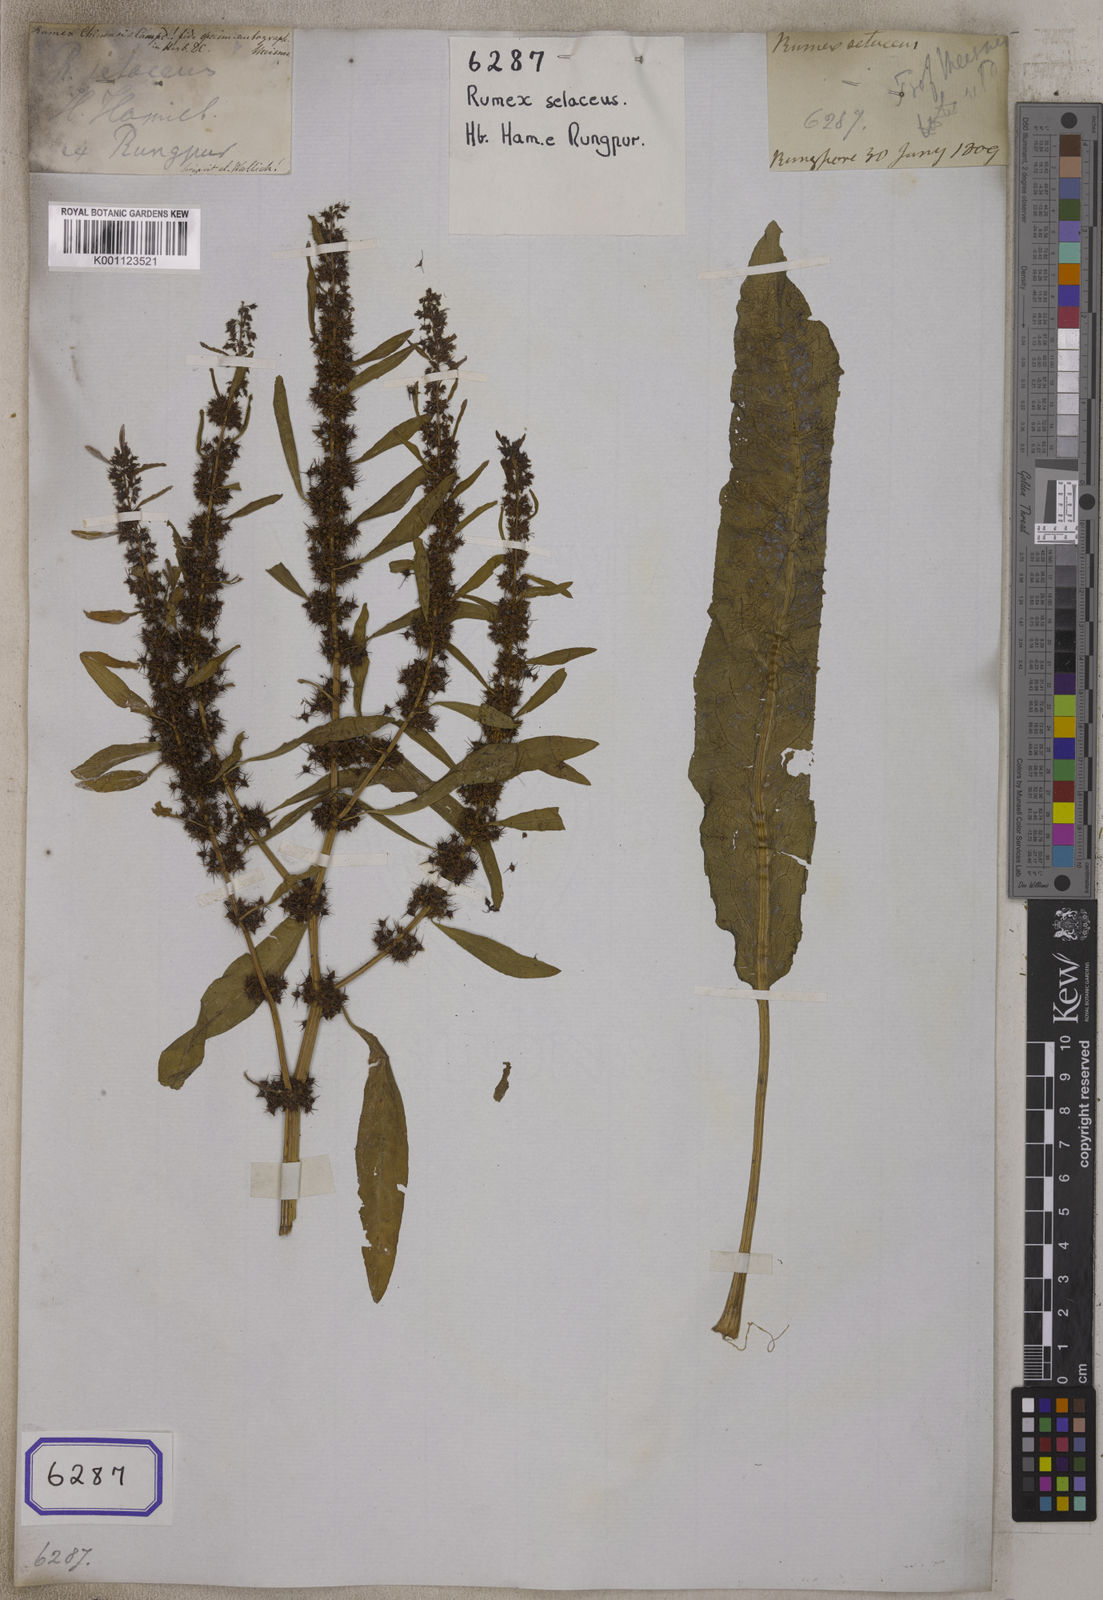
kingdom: Plantae
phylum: Tracheophyta
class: Magnoliopsida
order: Caryophyllales
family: Polygonaceae
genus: Rumex
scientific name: Rumex
